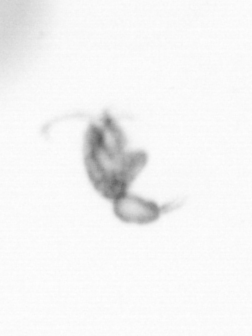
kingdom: Animalia
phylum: Arthropoda
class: Copepoda
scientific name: Copepoda
